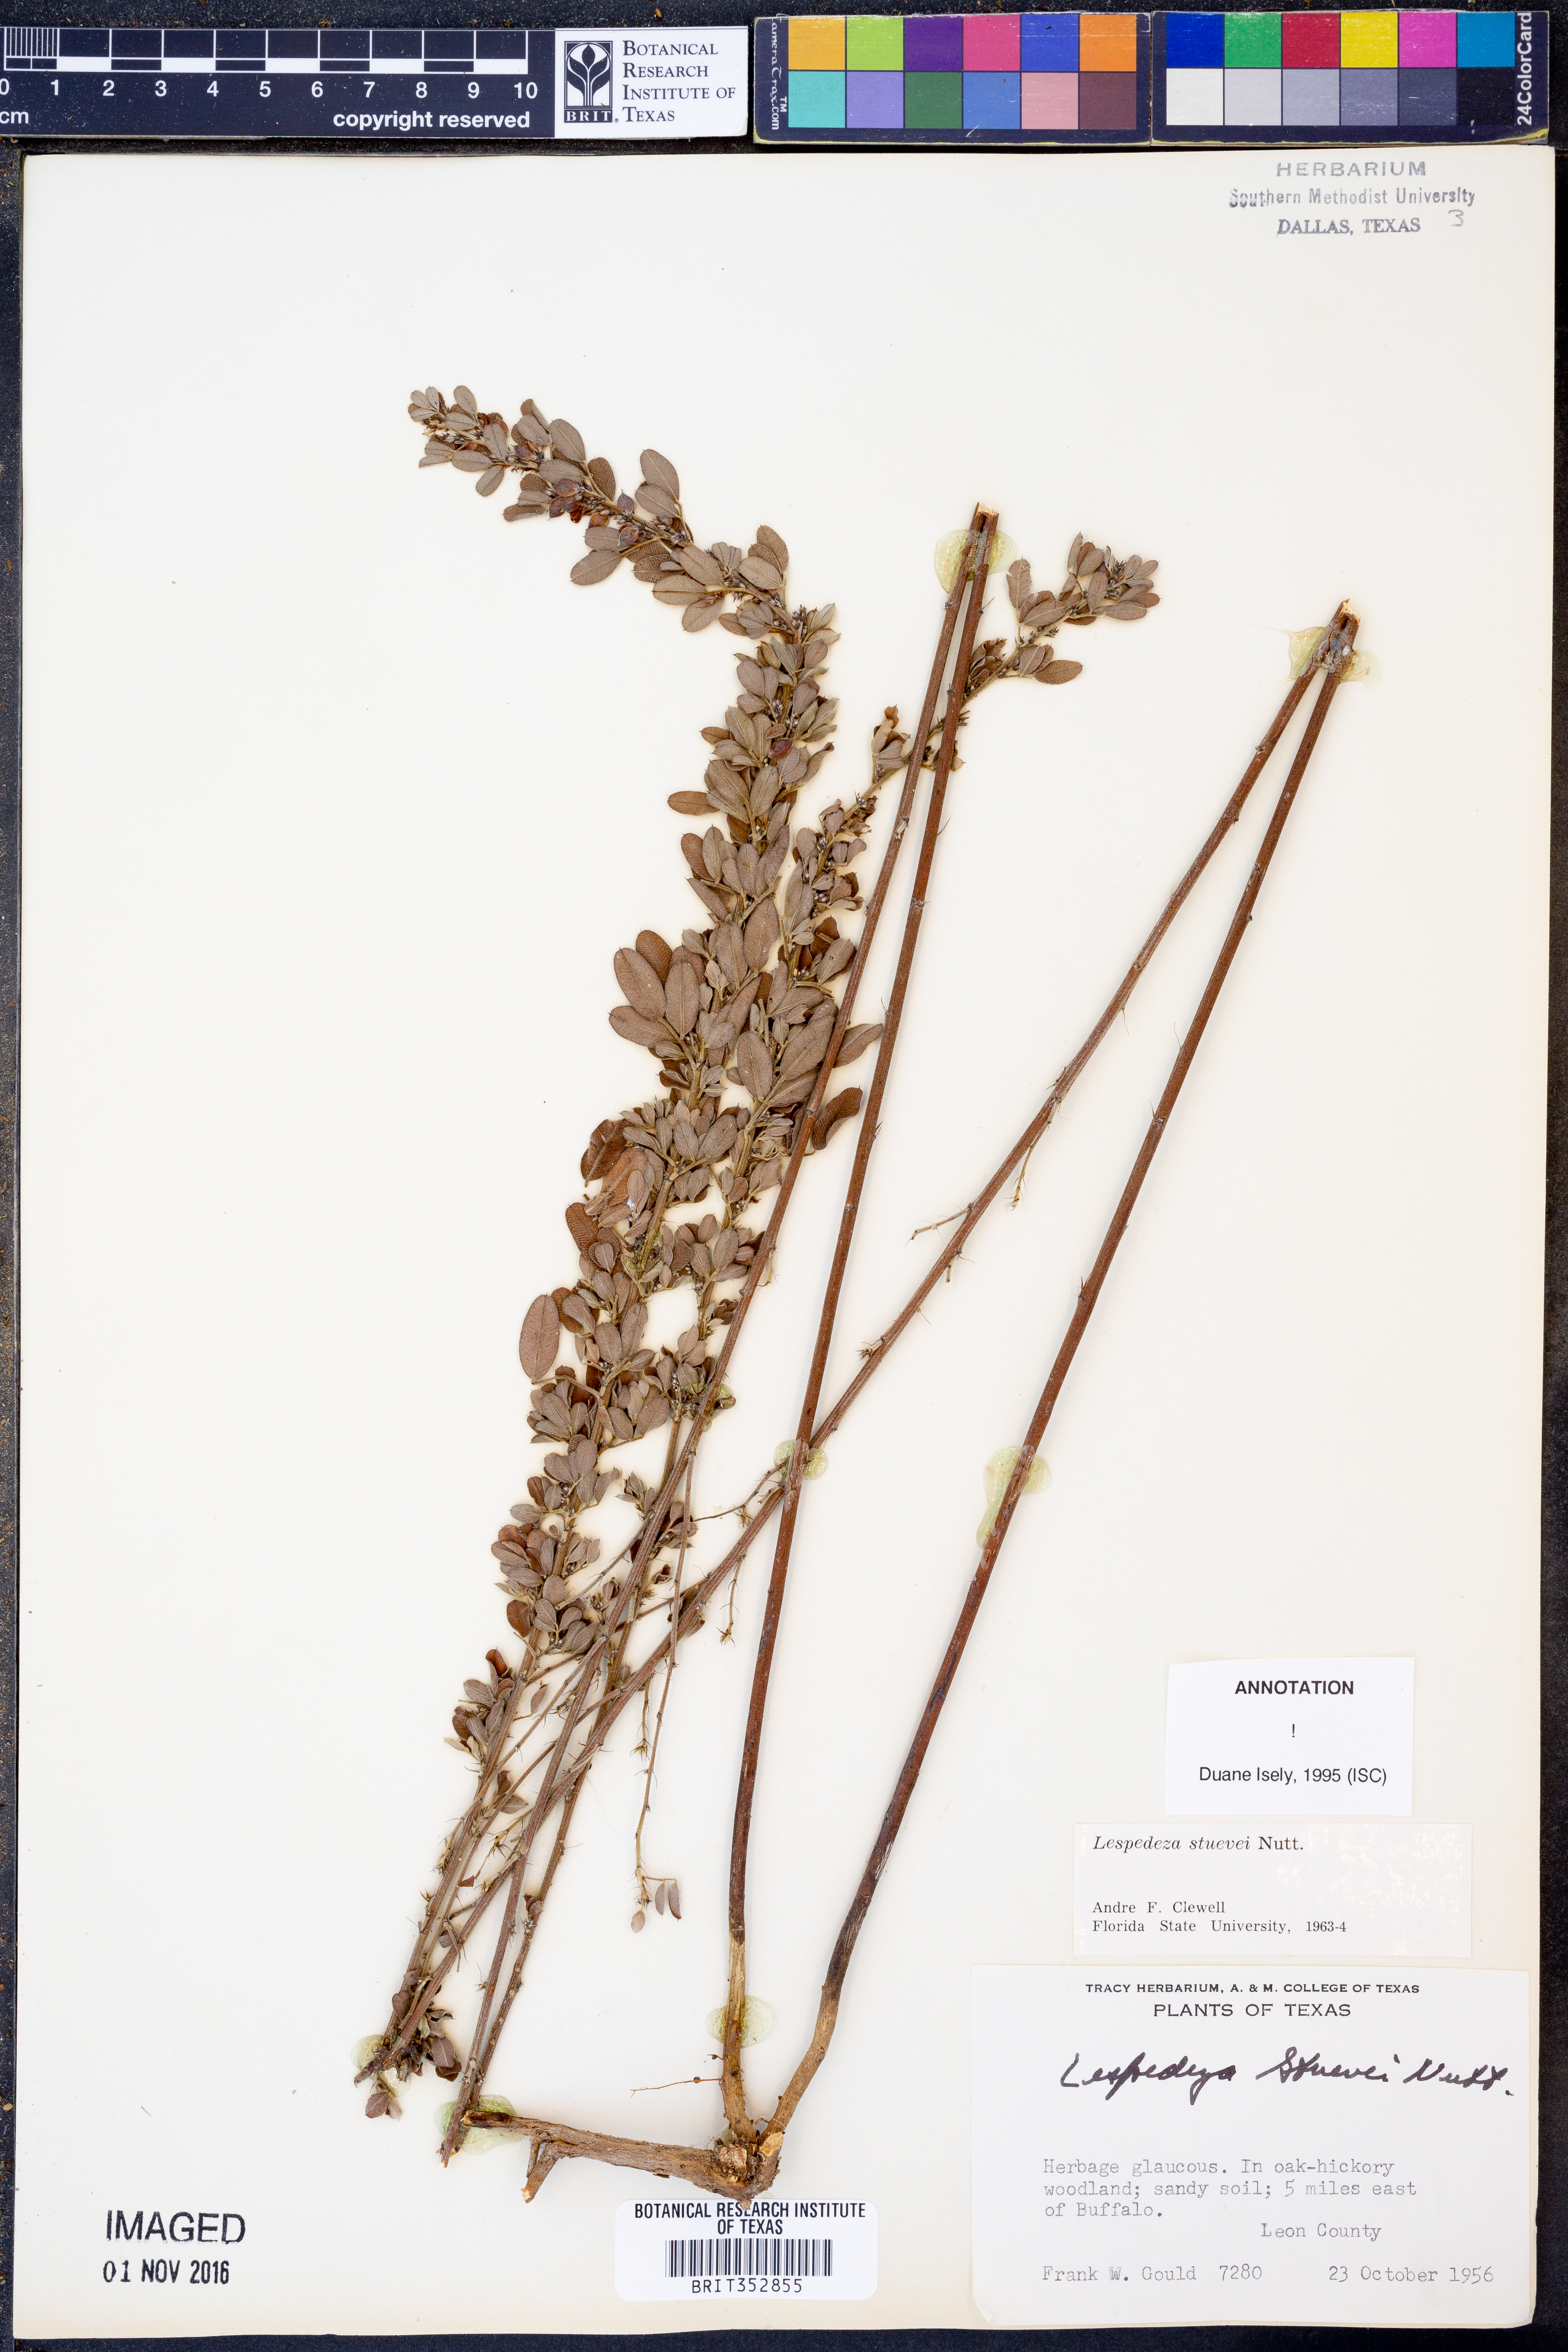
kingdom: Plantae
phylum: Tracheophyta
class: Magnoliopsida
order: Fabales
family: Fabaceae
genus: Lespedeza
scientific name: Lespedeza stuevei
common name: Tall bush-clover
